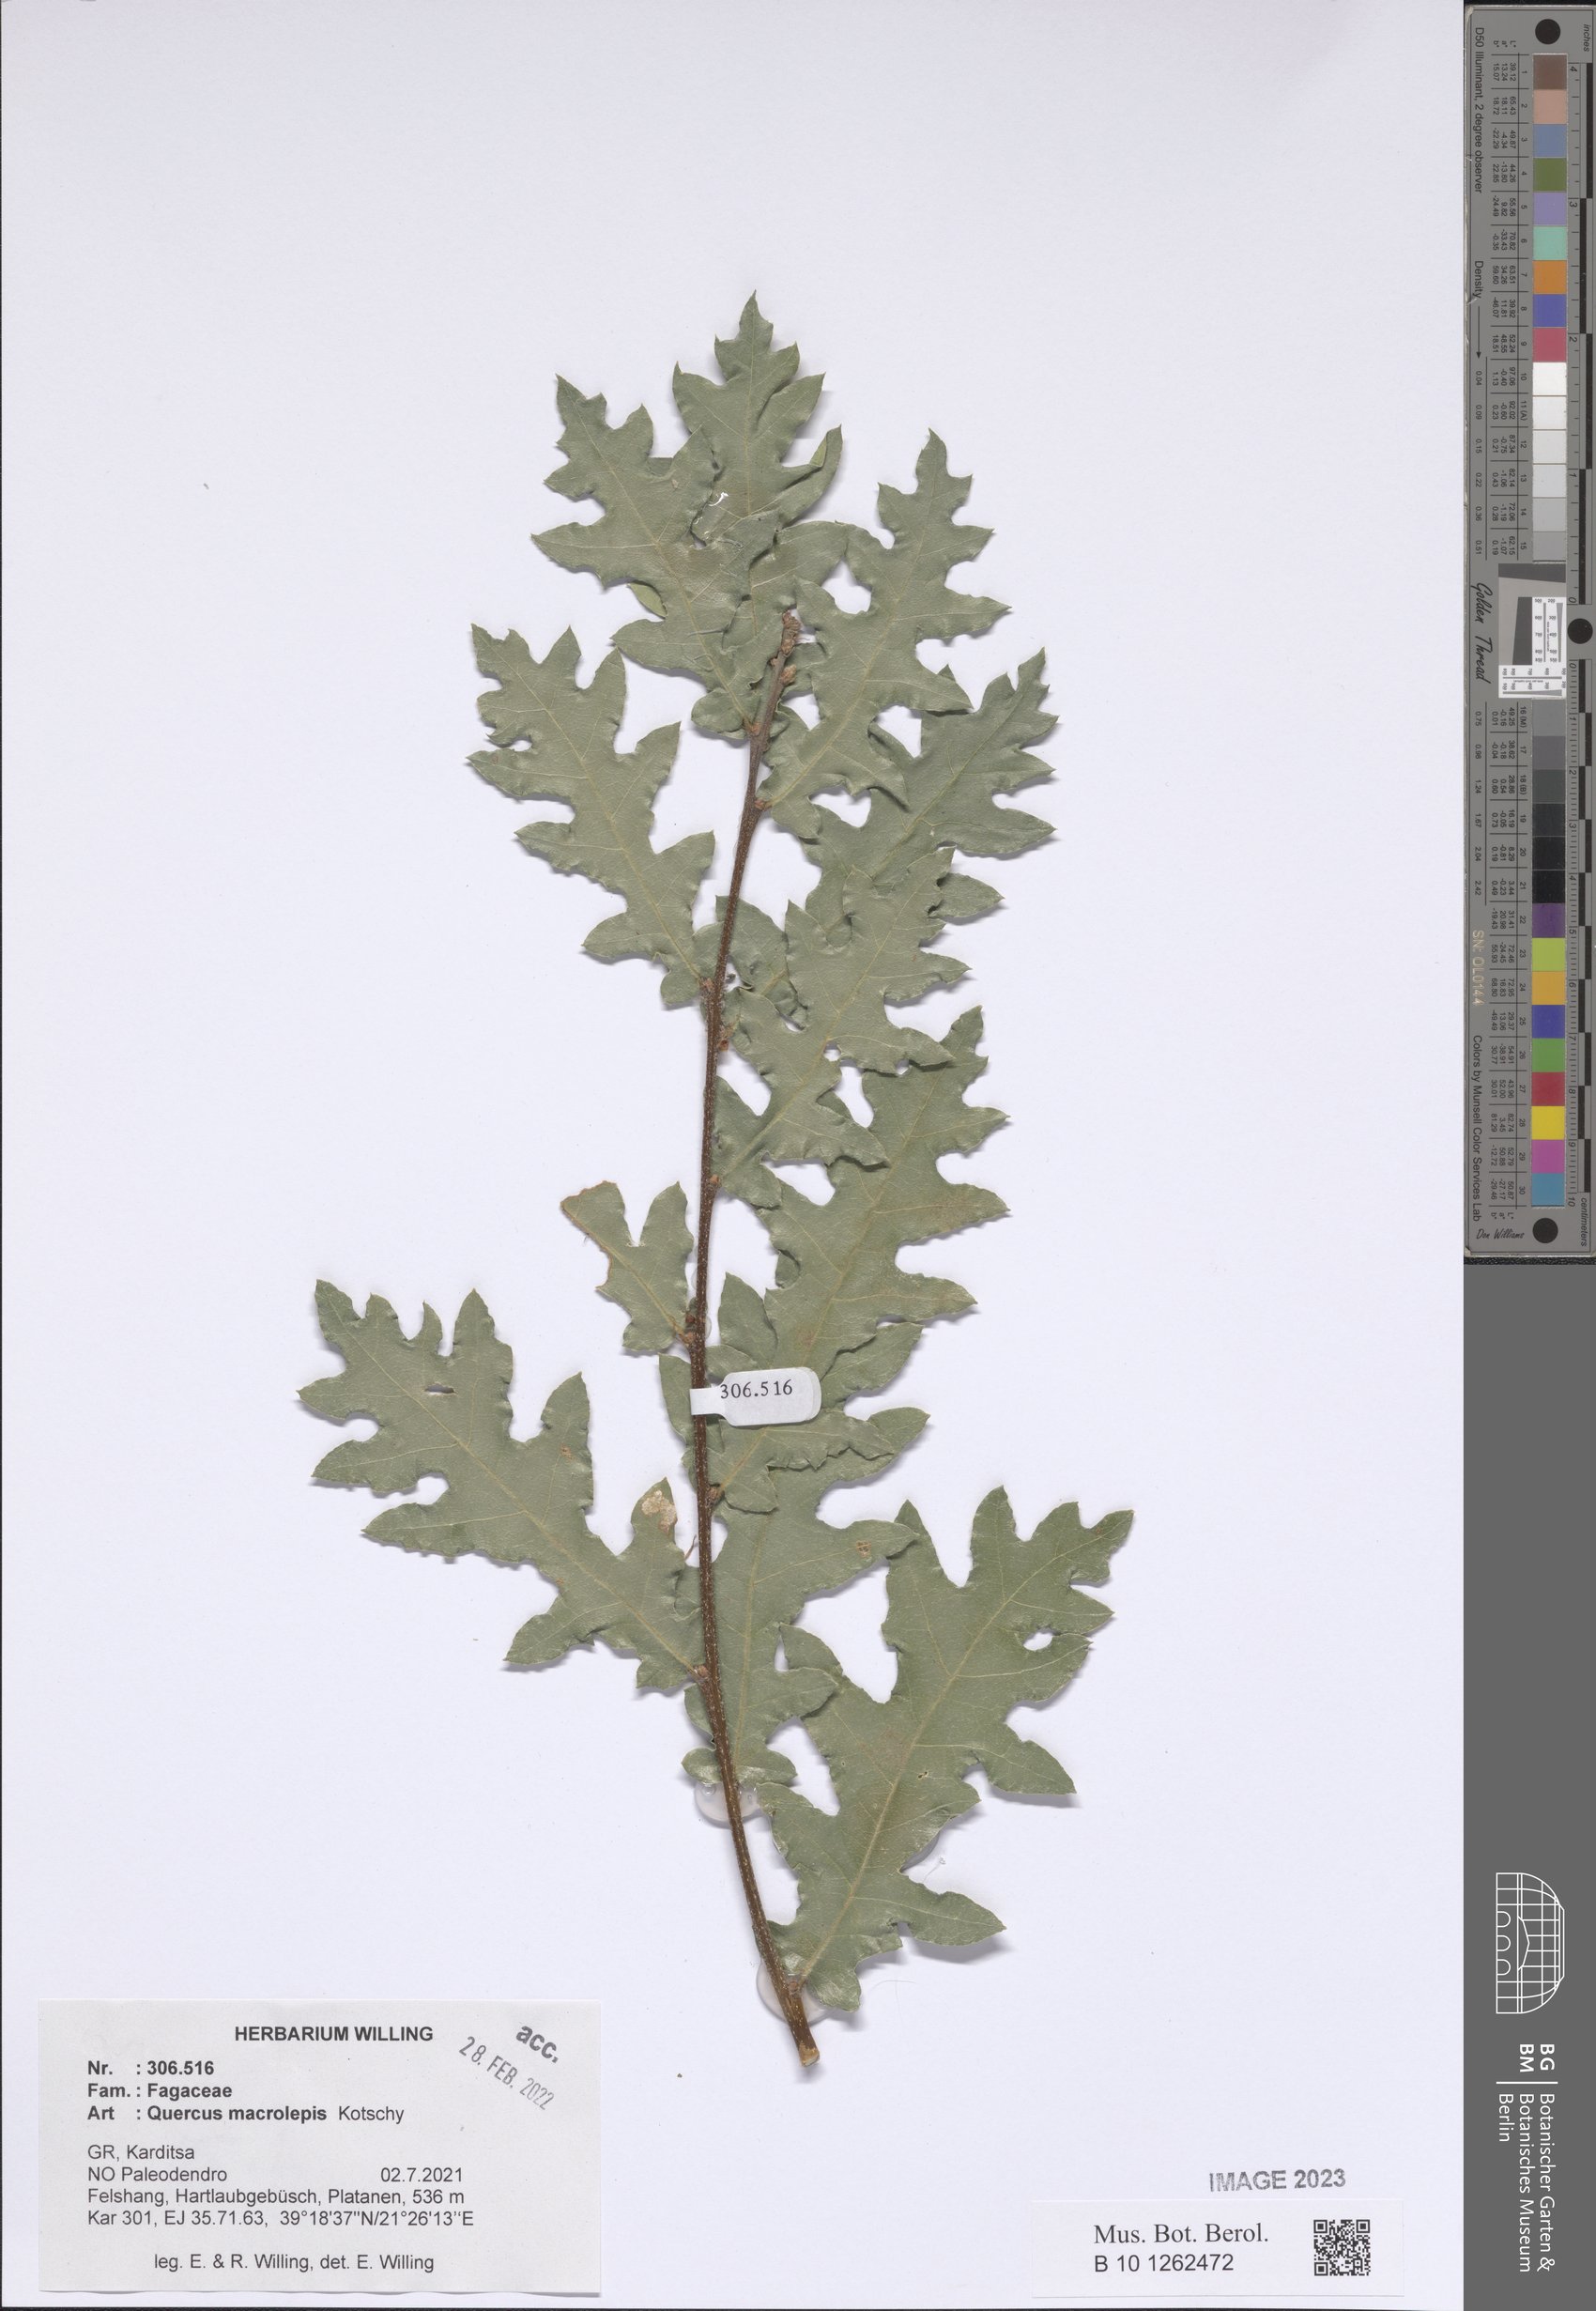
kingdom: Plantae
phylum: Tracheophyta
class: Magnoliopsida
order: Fagales
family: Fagaceae
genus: Quercus
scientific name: Quercus ithaburensis
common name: Tabor oak
